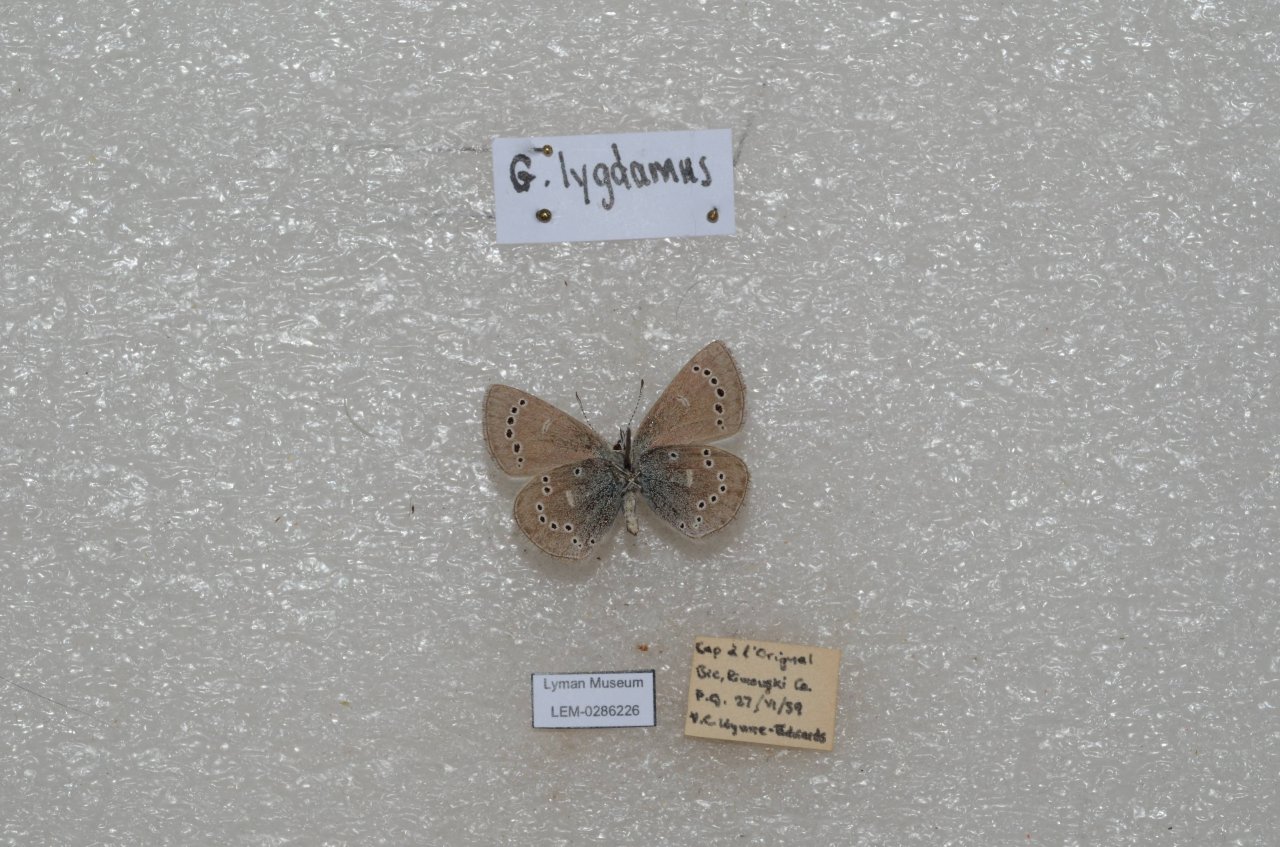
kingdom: Animalia
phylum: Arthropoda
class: Insecta
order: Lepidoptera
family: Lycaenidae
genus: Glaucopsyche
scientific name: Glaucopsyche lygdamus
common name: Silvery Blue
